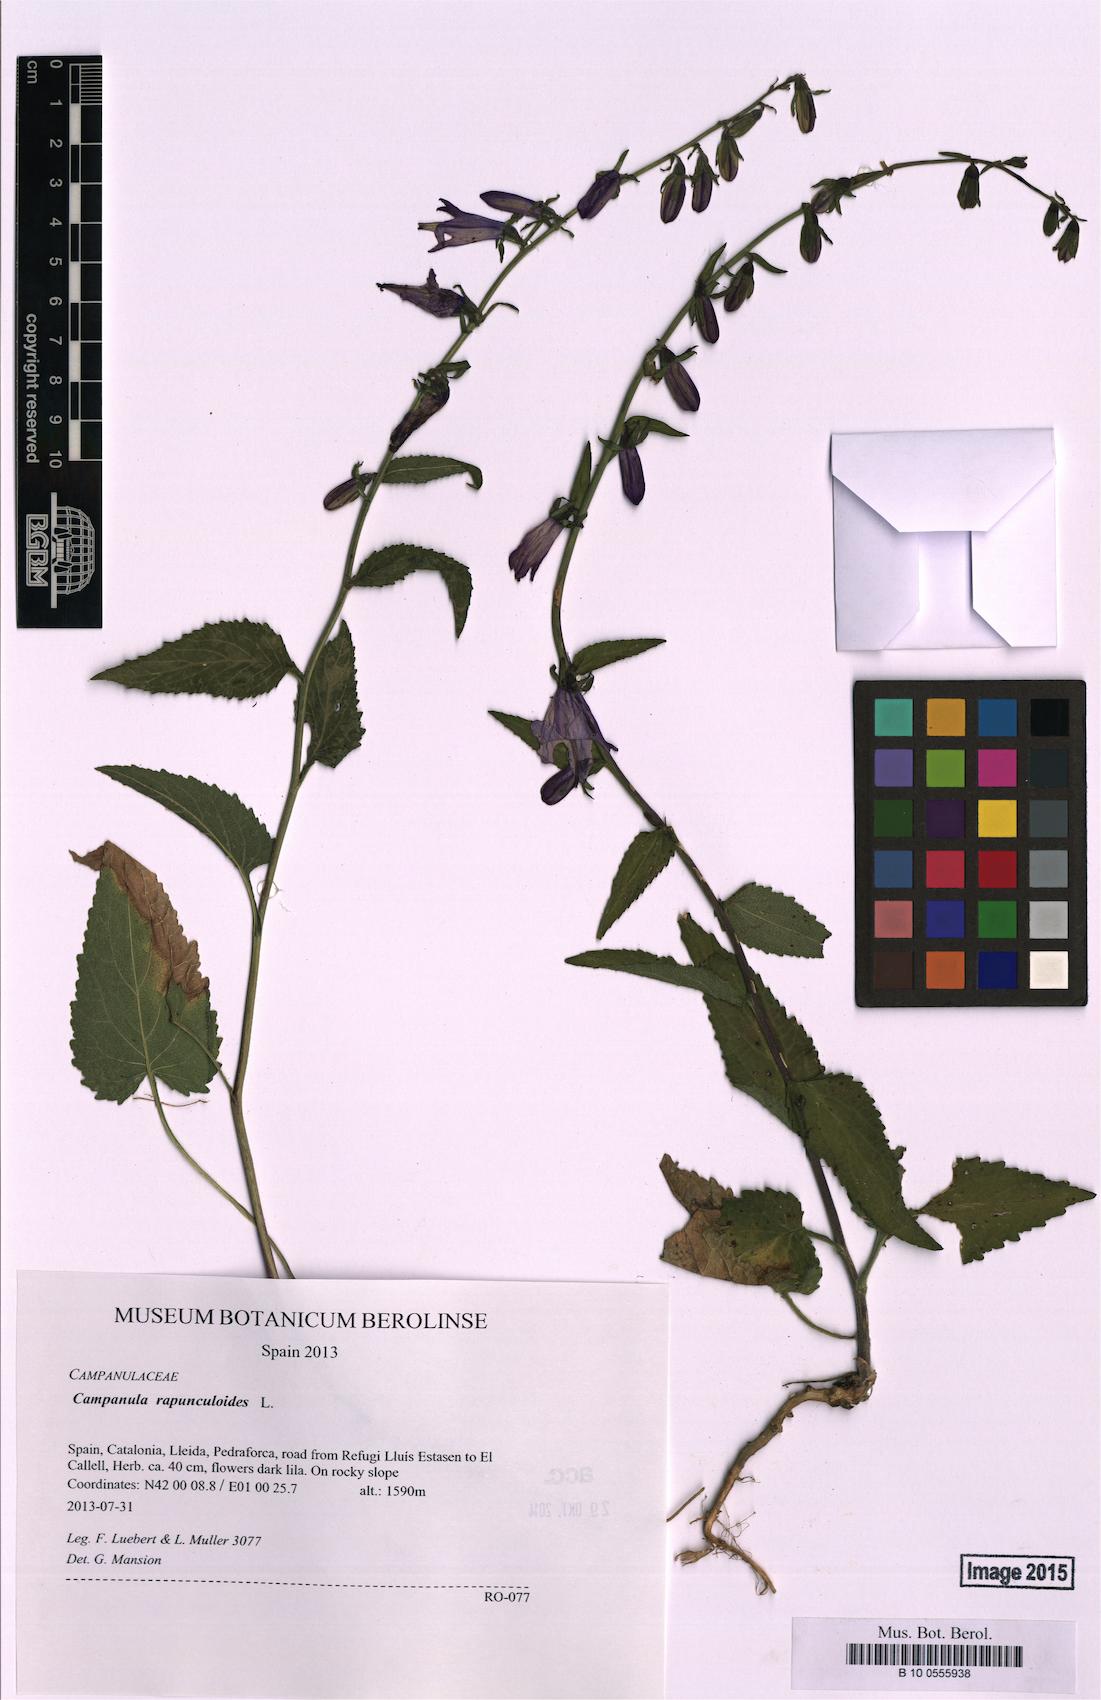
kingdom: Plantae
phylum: Tracheophyta
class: Magnoliopsida
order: Asterales
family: Campanulaceae
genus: Campanula
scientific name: Campanula rapunculoides
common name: Creeping bellflower
